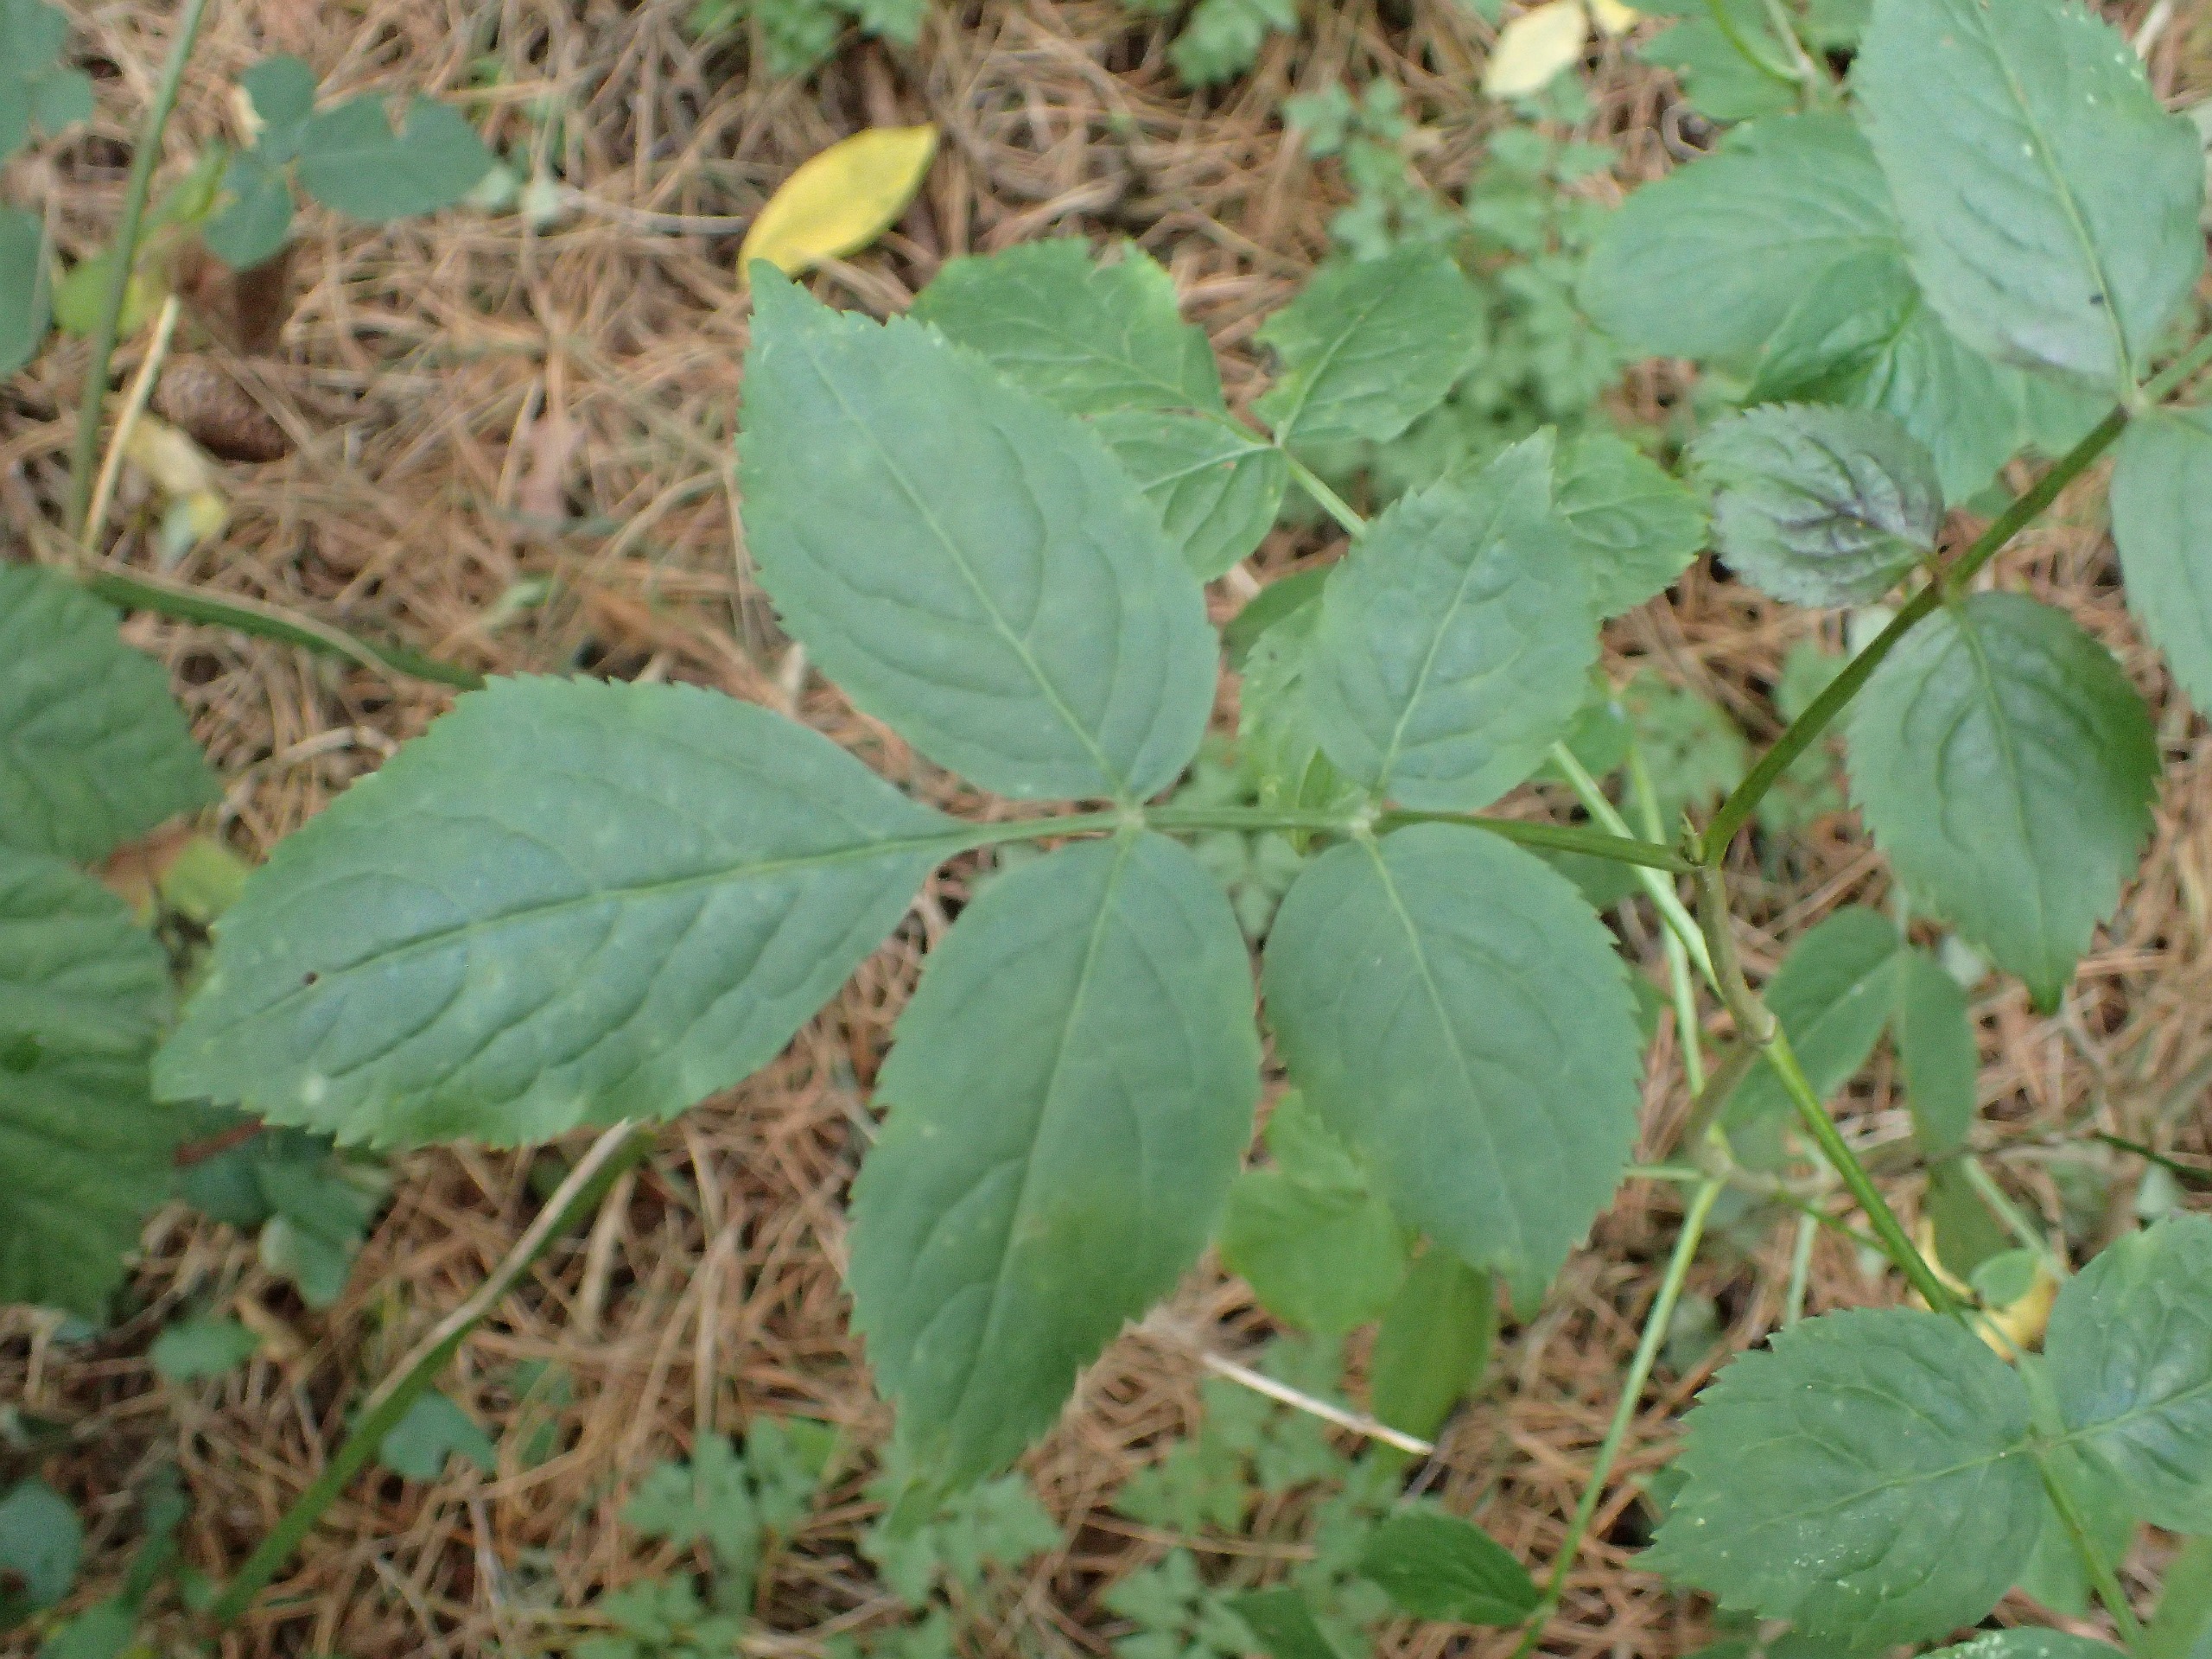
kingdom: Plantae
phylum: Tracheophyta
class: Magnoliopsida
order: Dipsacales
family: Viburnaceae
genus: Sambucus
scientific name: Sambucus nigra
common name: Almindelig hyld
